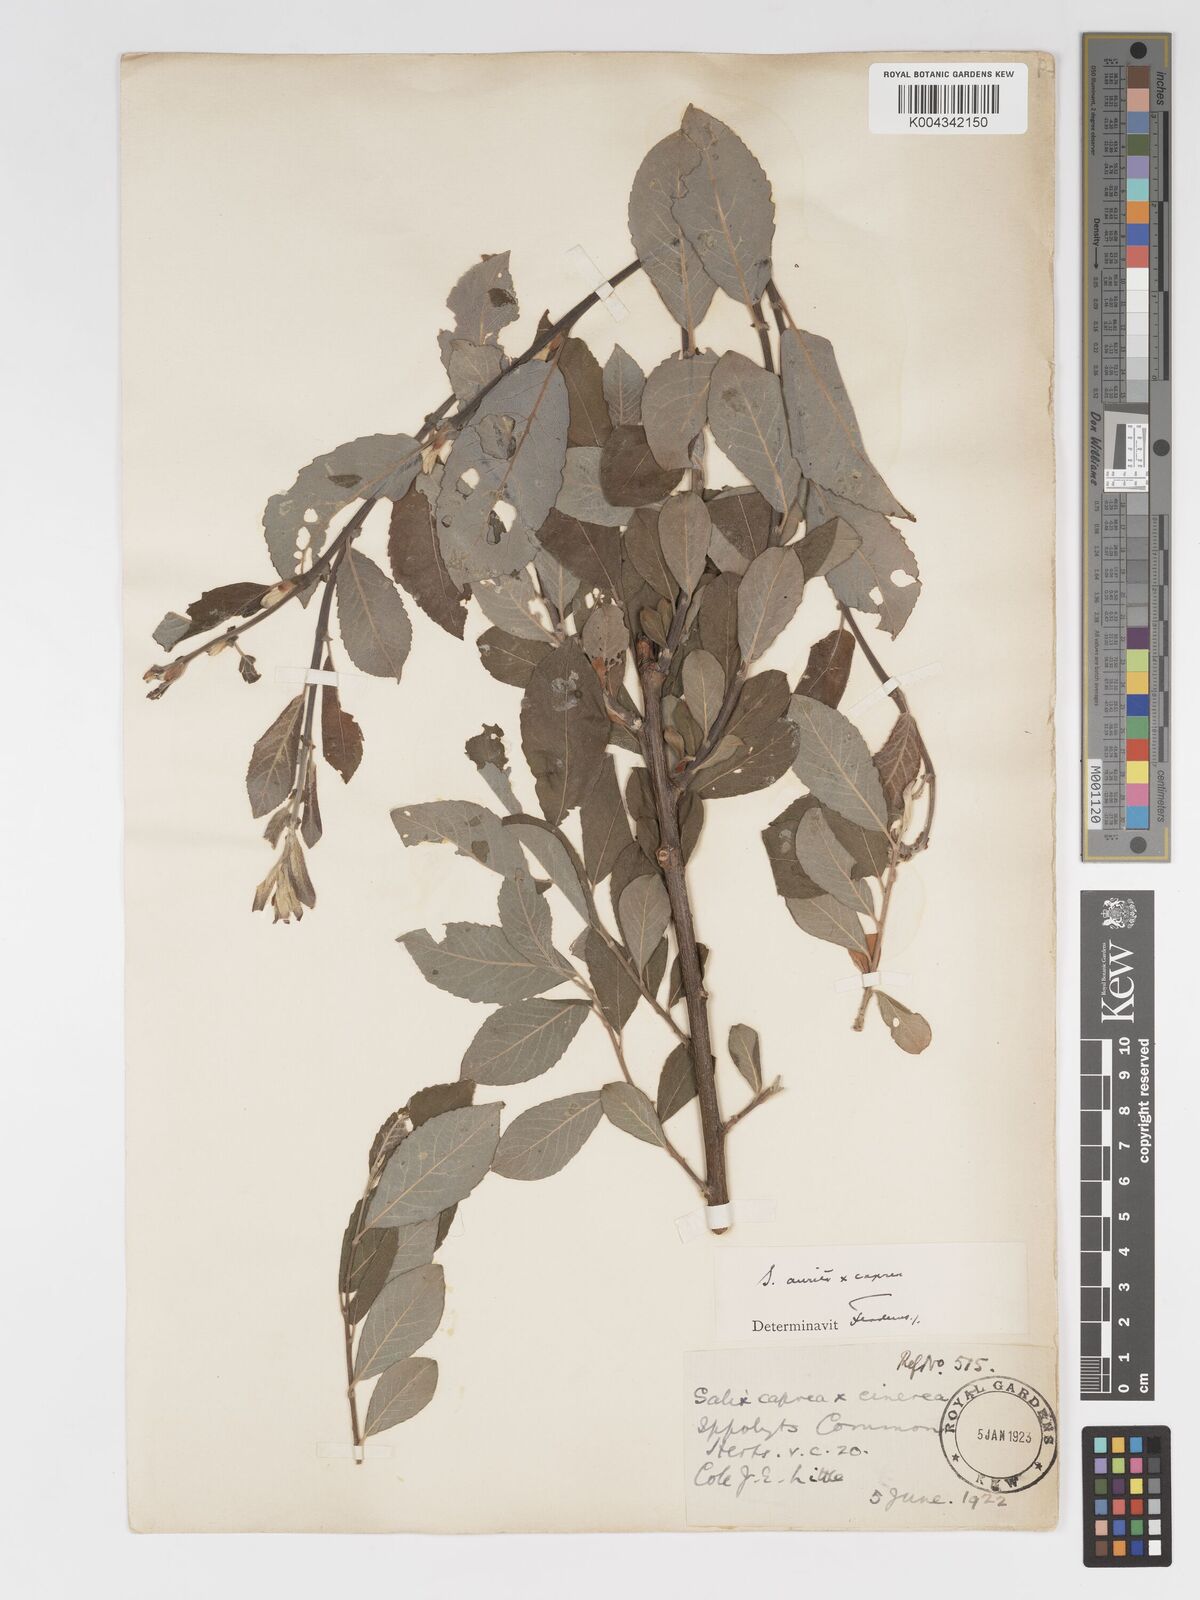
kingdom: Plantae
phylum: Tracheophyta
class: Magnoliopsida
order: Malpighiales
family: Salicaceae
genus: Salix
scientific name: Salix
